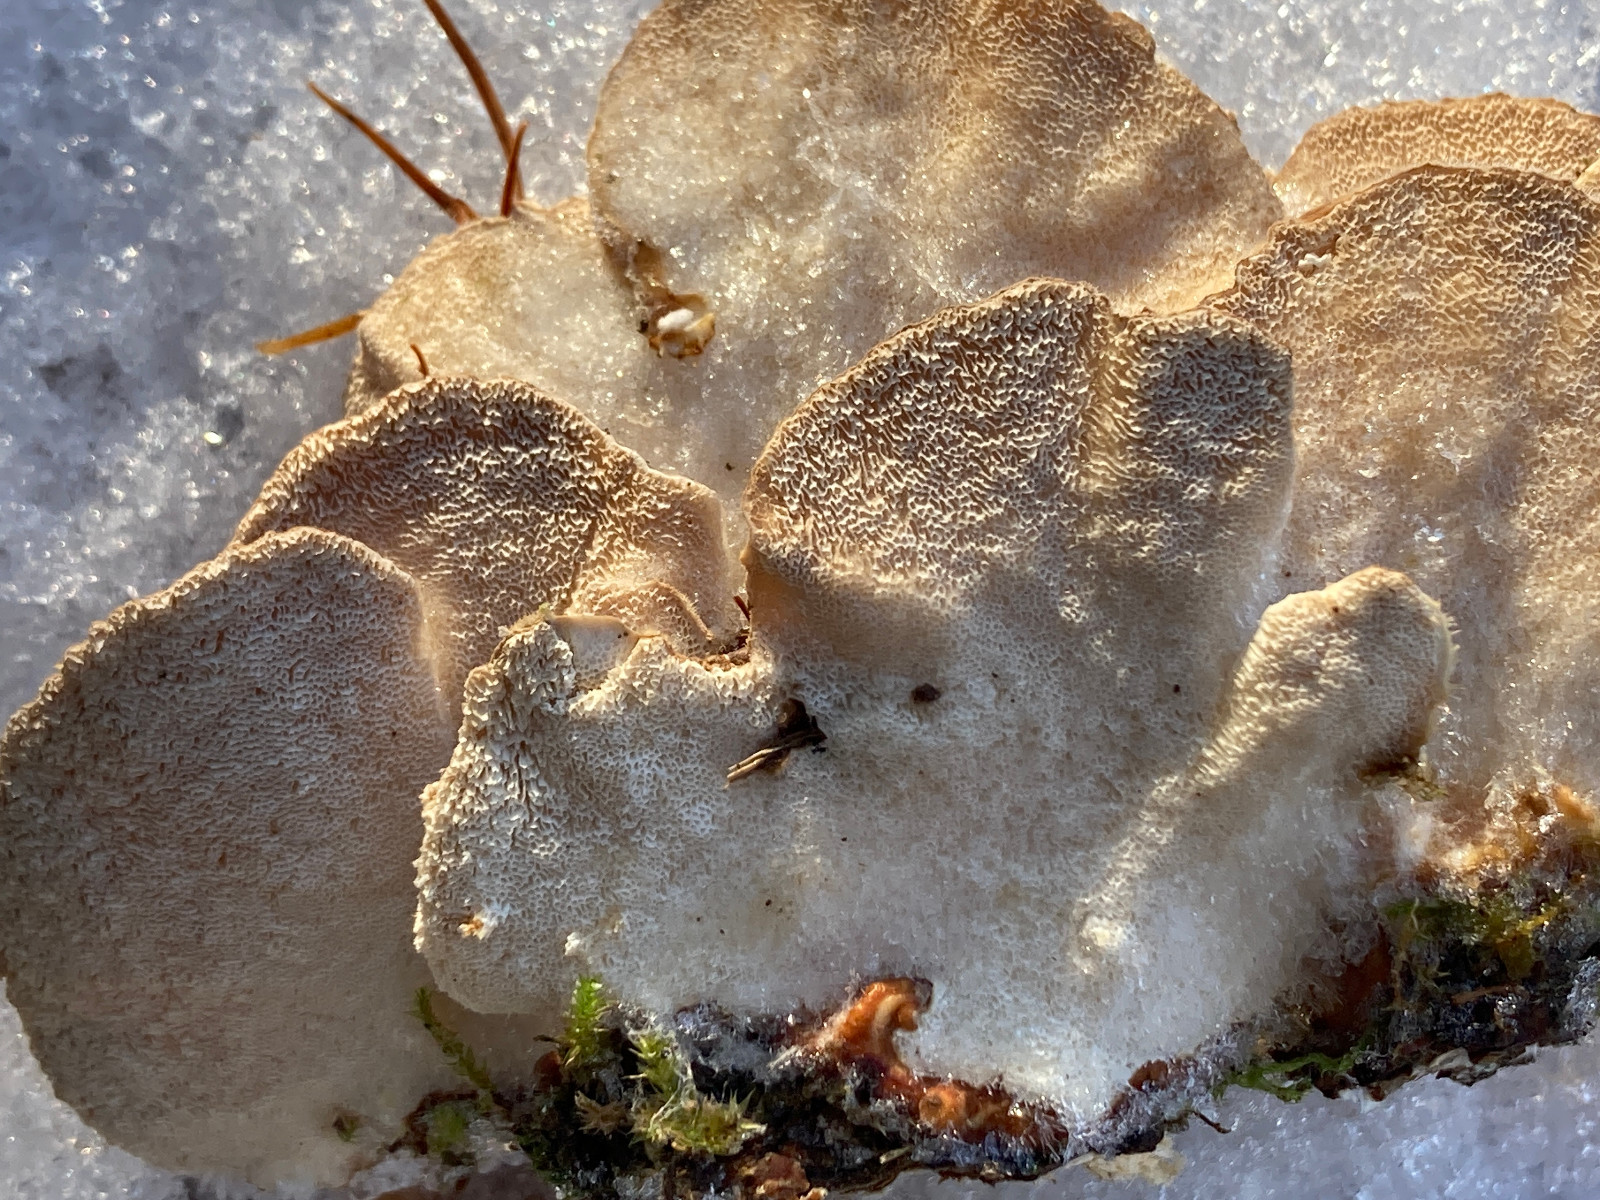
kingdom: Fungi
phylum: Basidiomycota
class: Agaricomycetes
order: Polyporales
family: Polyporaceae
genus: Trametes
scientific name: Trametes ochracea
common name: bæltet læderporesvamp
